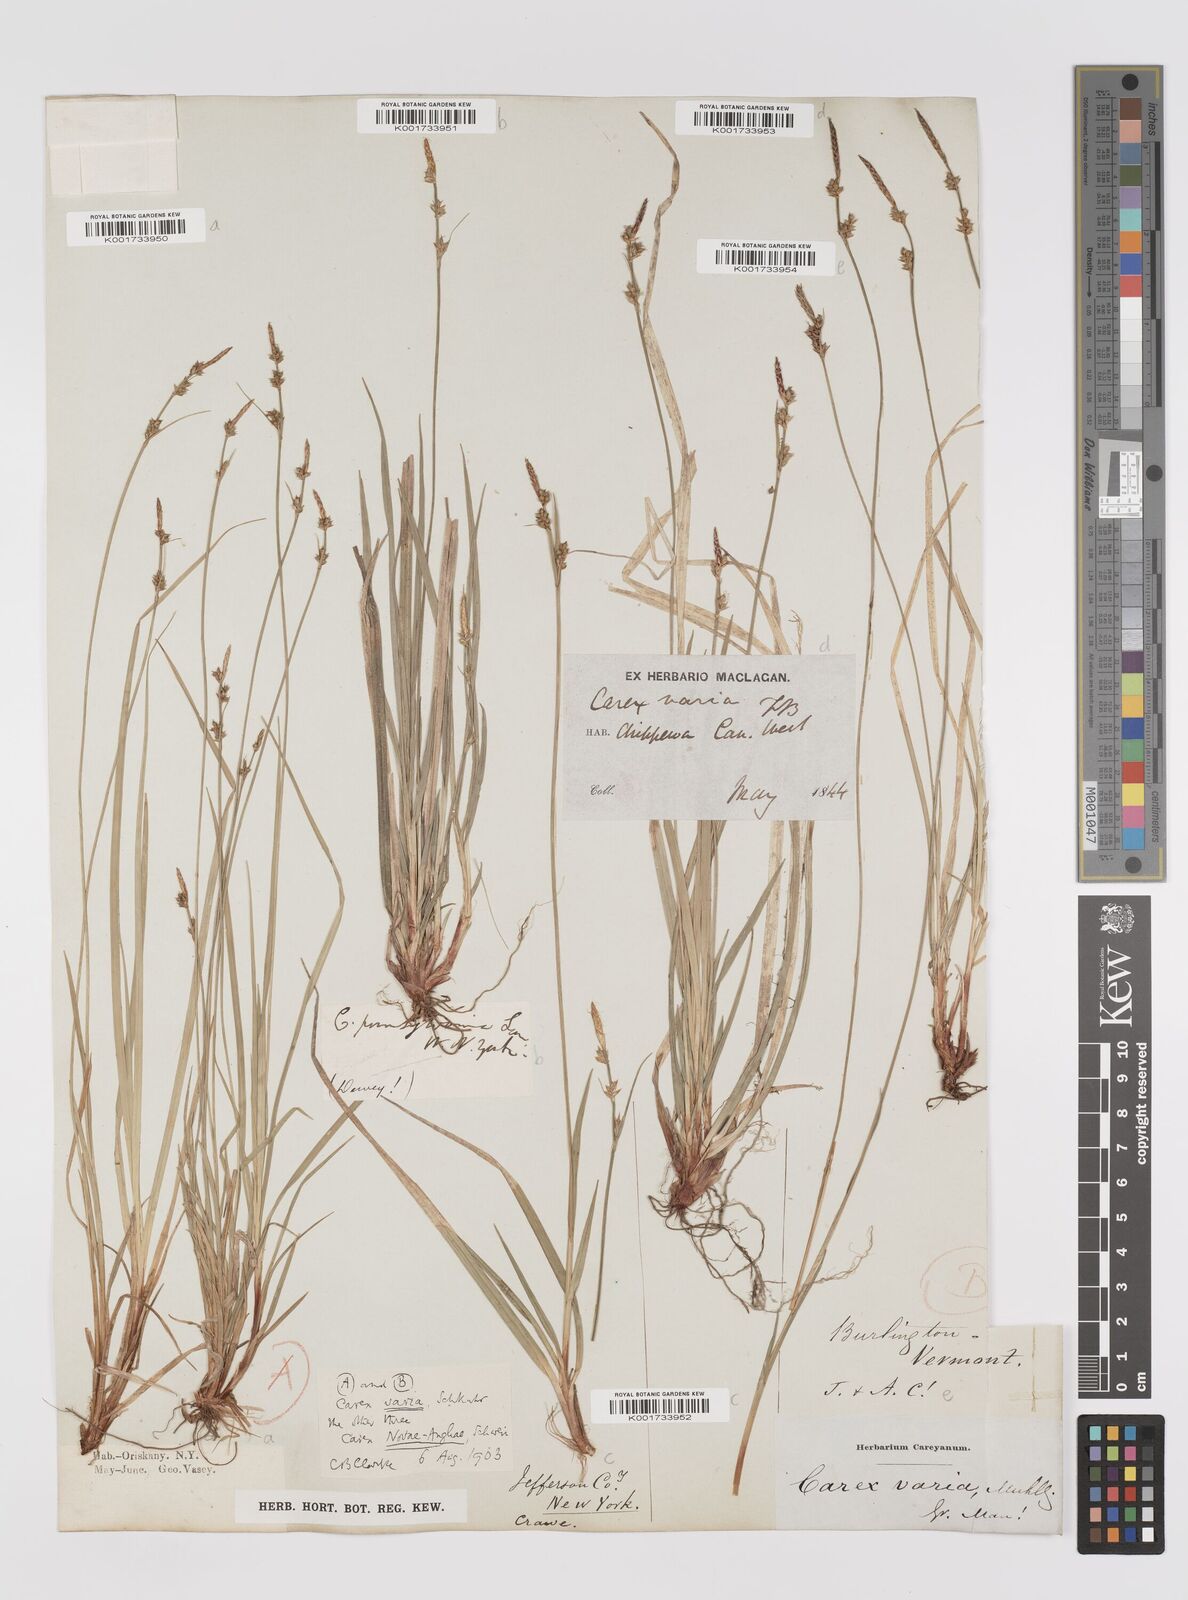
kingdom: Plantae
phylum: Tracheophyta
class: Liliopsida
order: Poales
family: Cyperaceae
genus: Carex
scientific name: Carex albicans
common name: Bellow-beaked sedge
